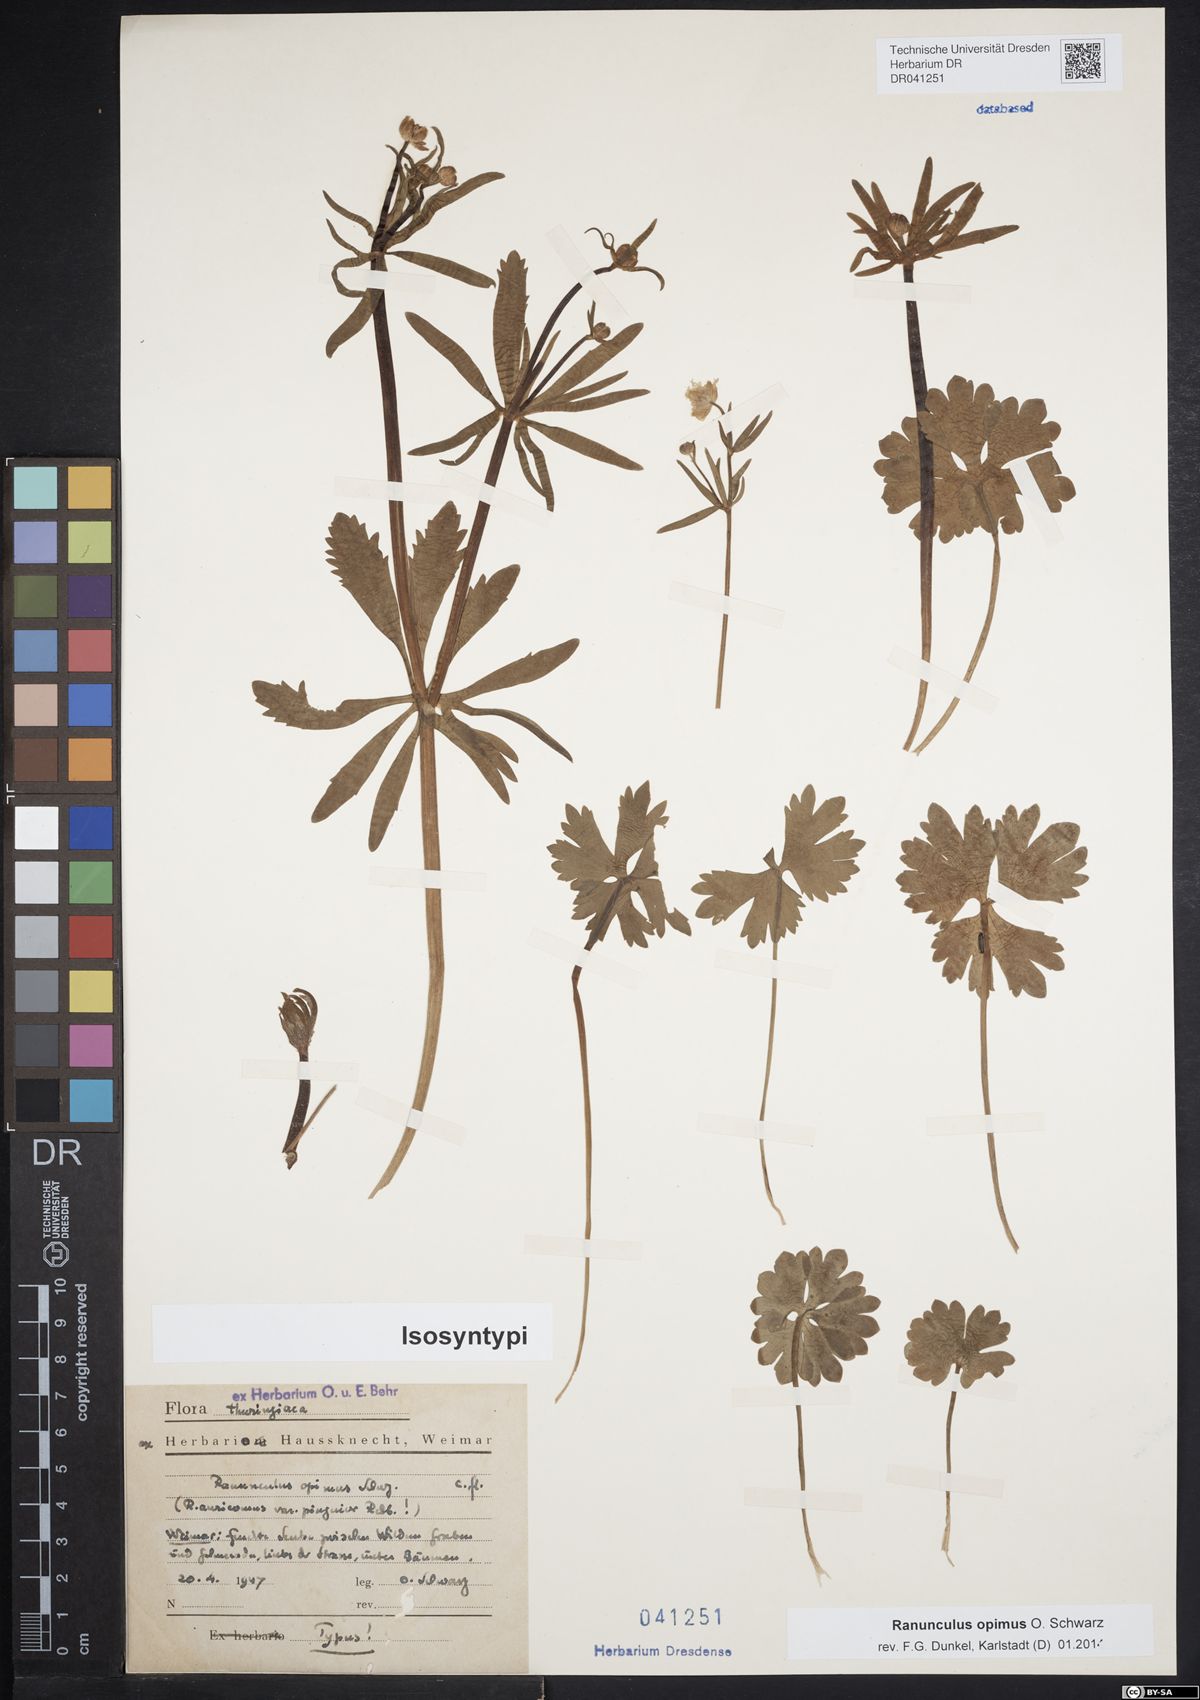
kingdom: Plantae
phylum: Tracheophyta
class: Magnoliopsida
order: Ranunculales
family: Ranunculaceae
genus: Ranunculus
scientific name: Ranunculus opimus
